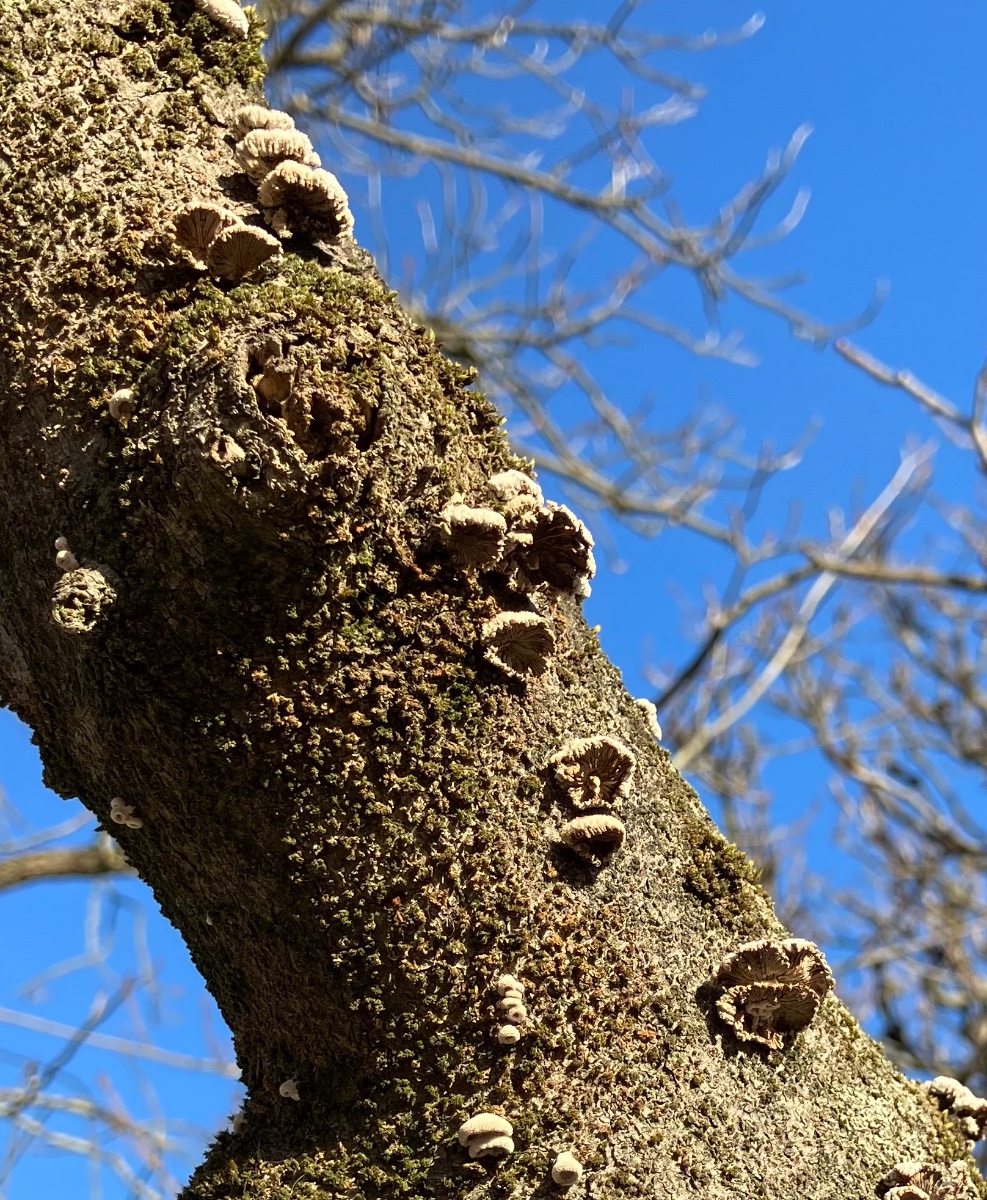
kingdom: Fungi
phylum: Basidiomycota
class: Agaricomycetes
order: Agaricales
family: Schizophyllaceae
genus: Schizophyllum
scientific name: Schizophyllum commune
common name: kløvblad
